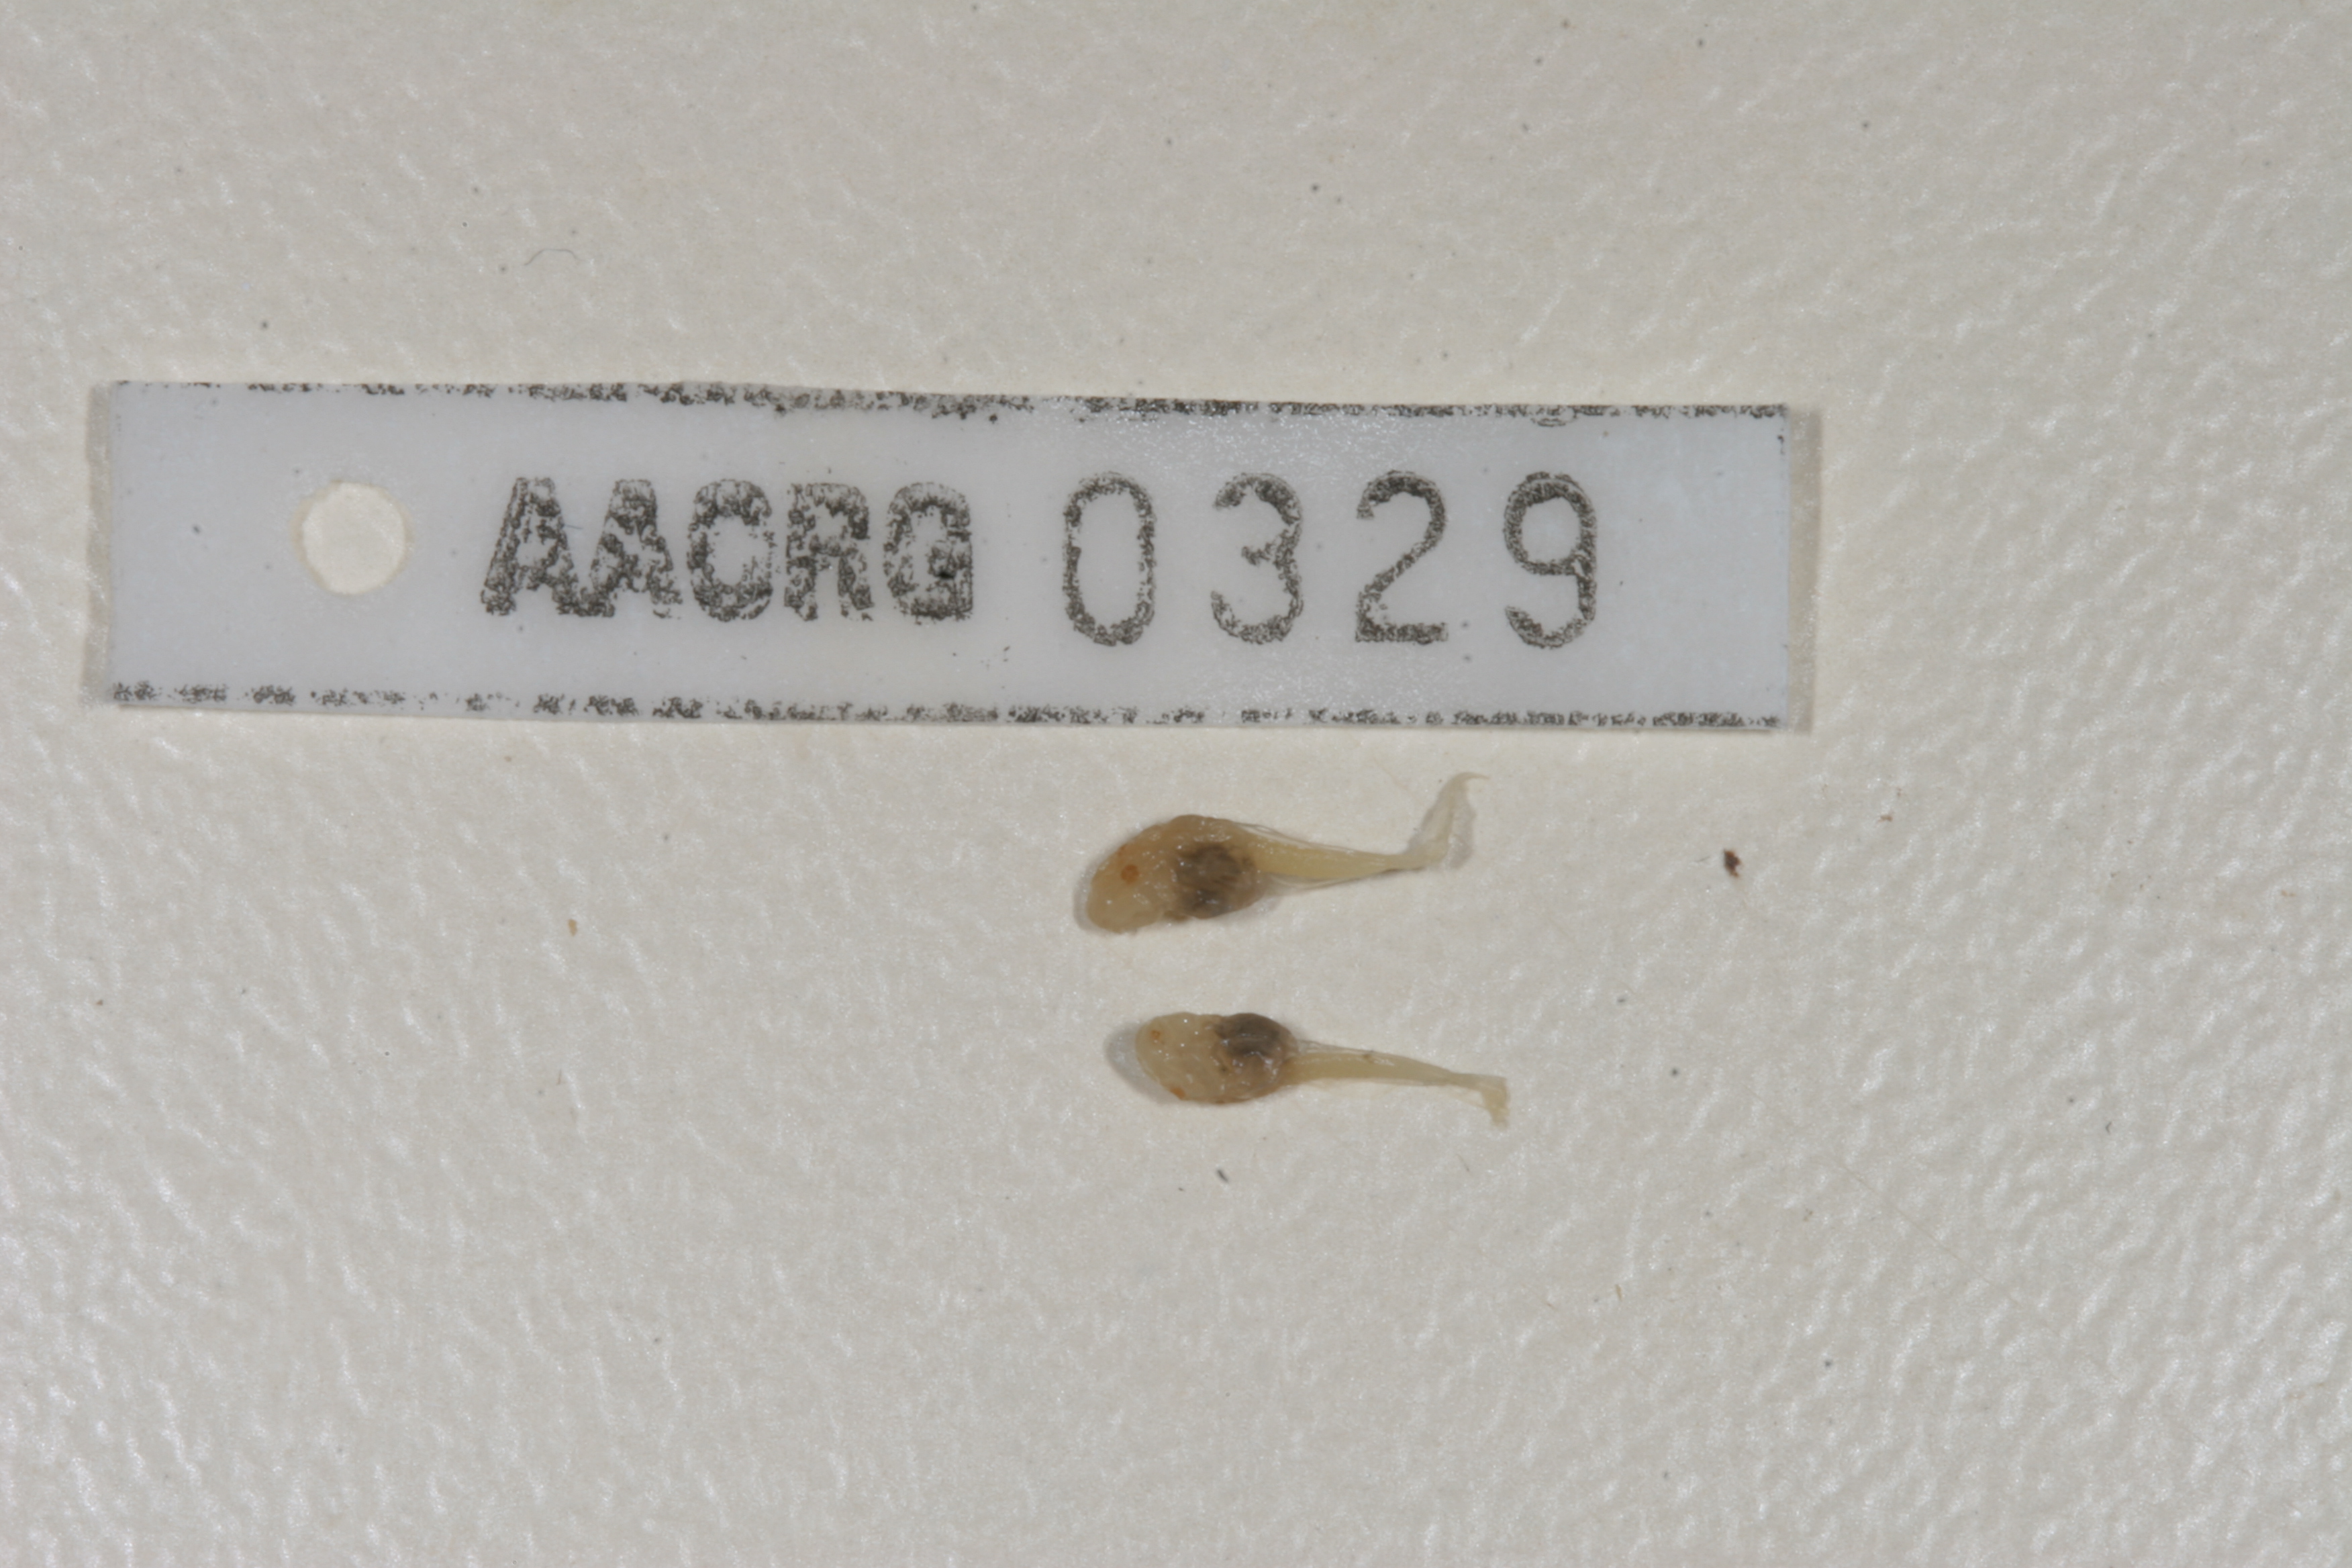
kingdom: Animalia
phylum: Chordata
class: Amphibia
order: Anura
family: Pyxicephalidae
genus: Strongylopus
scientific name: Strongylopus grayii
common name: Gray's stream frog
